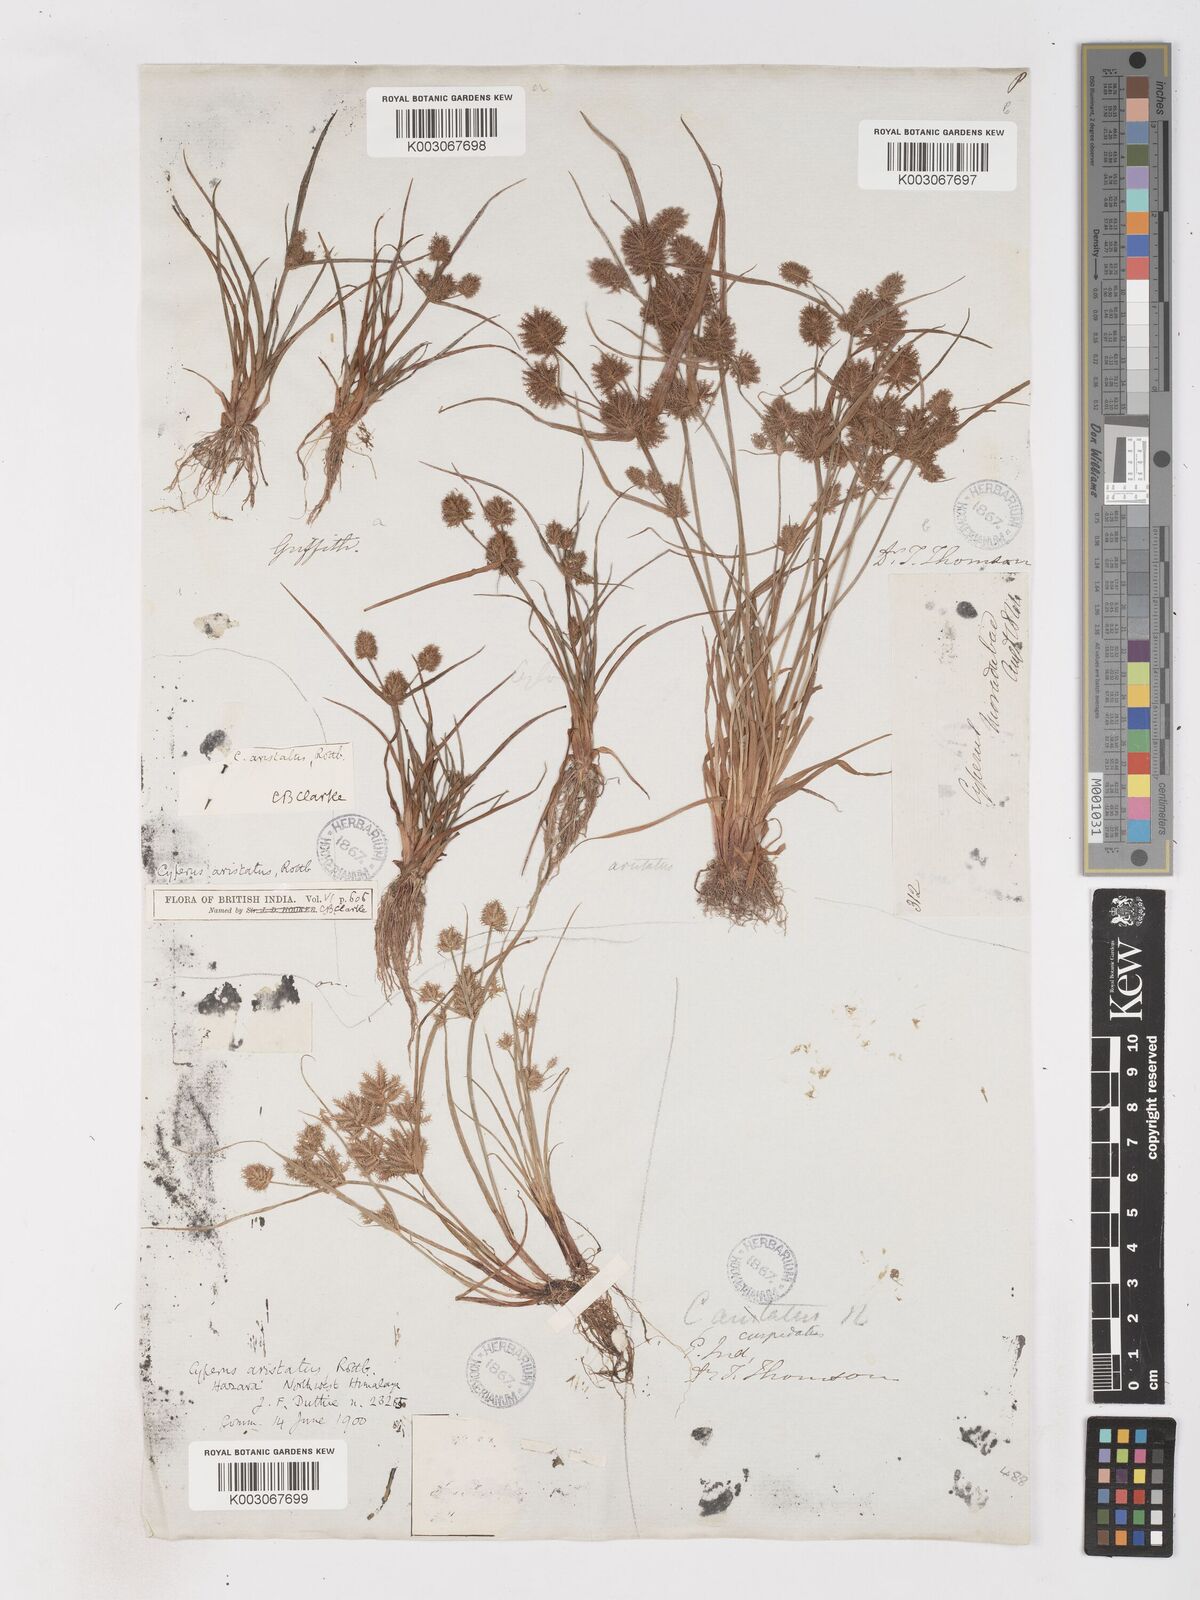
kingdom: Plantae
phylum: Tracheophyta
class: Liliopsida
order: Poales
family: Cyperaceae
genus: Cyperus
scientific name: Cyperus squarrosus
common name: Awned cyperus
